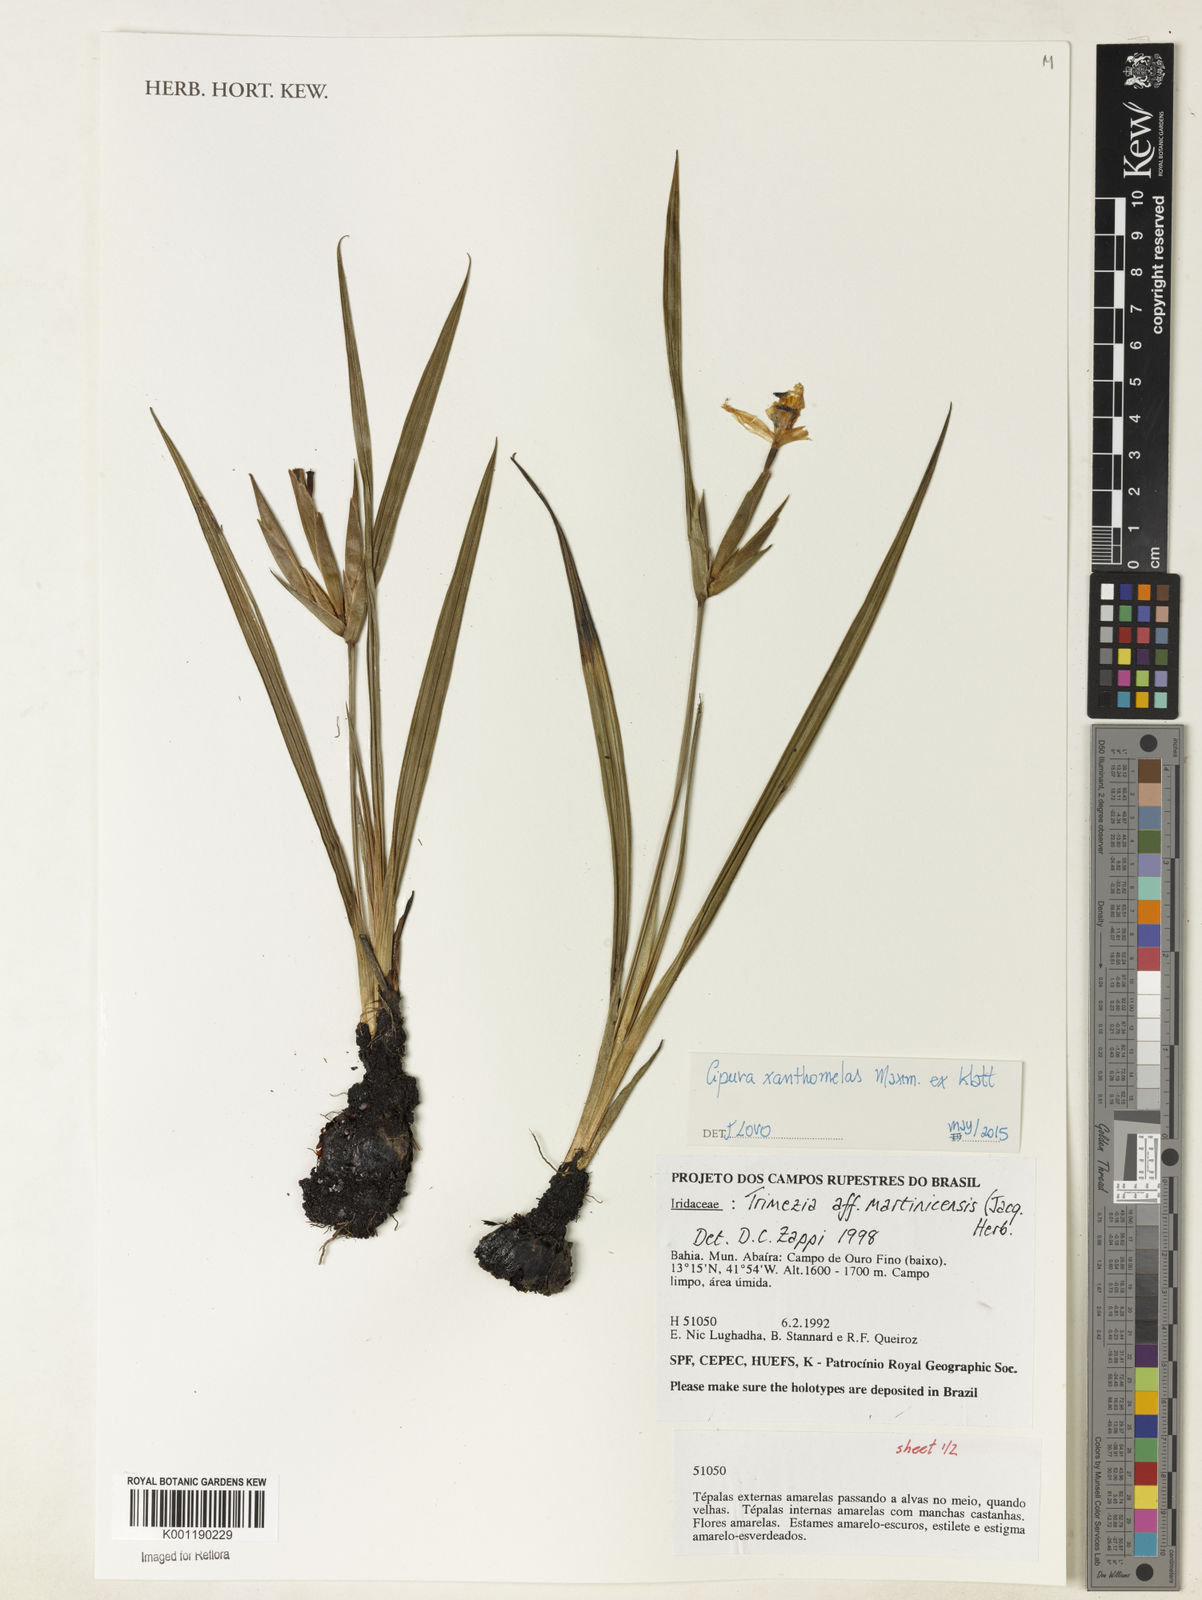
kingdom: Plantae
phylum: Tracheophyta
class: Liliopsida
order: Asparagales
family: Iridaceae
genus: Trimezia
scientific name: Trimezia martinicensis
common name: Martinique trimezia
